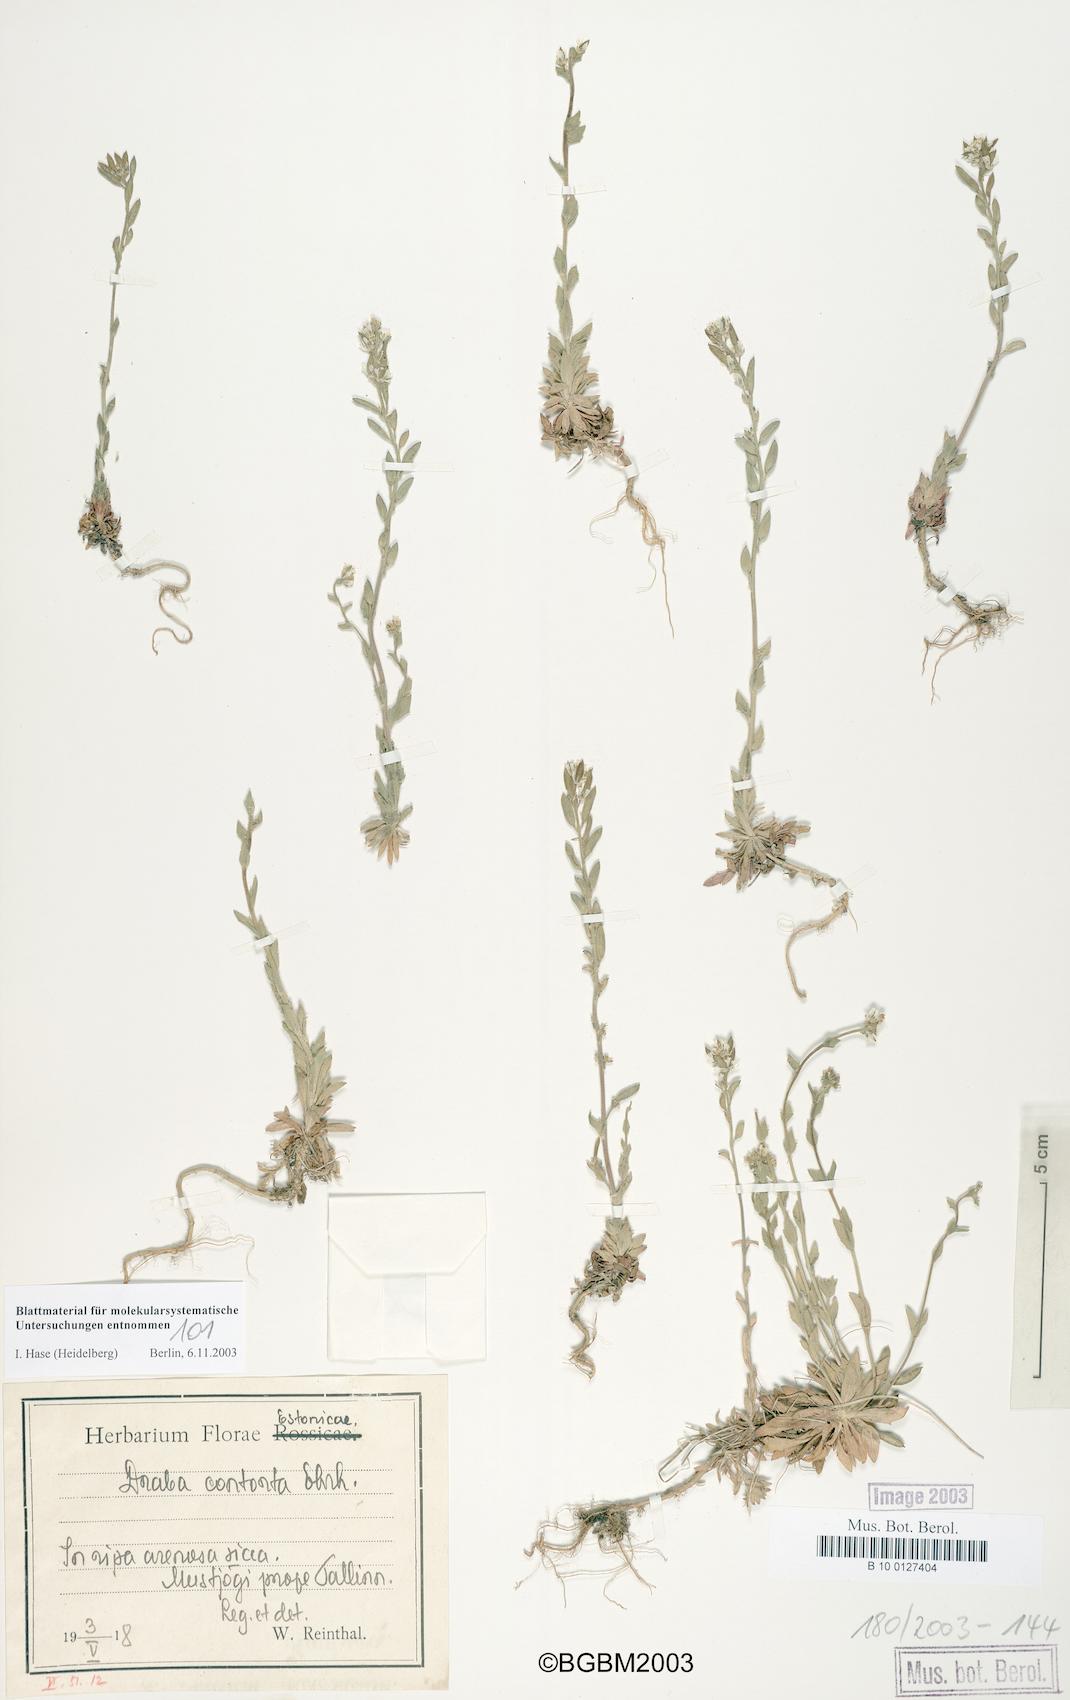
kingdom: Plantae
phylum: Tracheophyta
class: Magnoliopsida
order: Brassicales
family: Brassicaceae
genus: Draba
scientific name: Draba incana
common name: Hoary whitlow-grass
